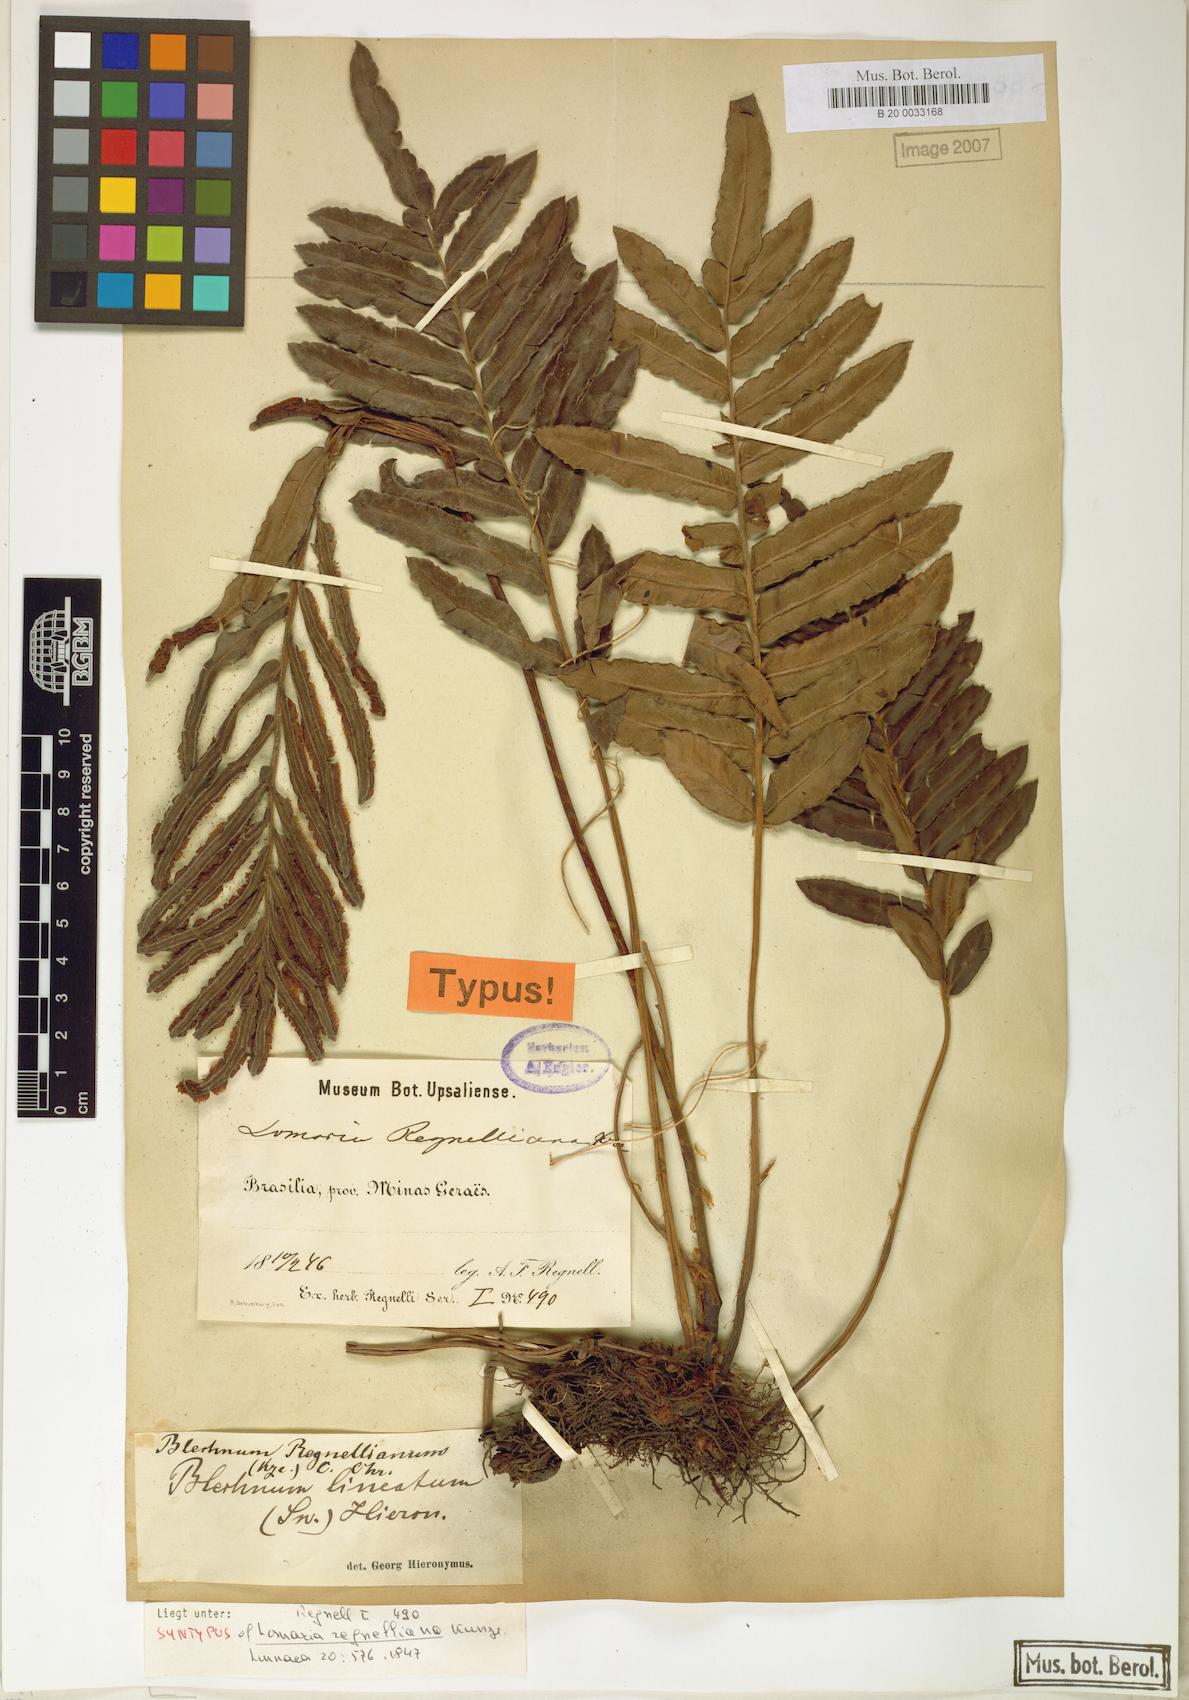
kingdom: Plantae
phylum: Tracheophyta
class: Polypodiopsida
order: Polypodiales
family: Blechnaceae
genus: Parablechnum
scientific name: Parablechnum cordatum
